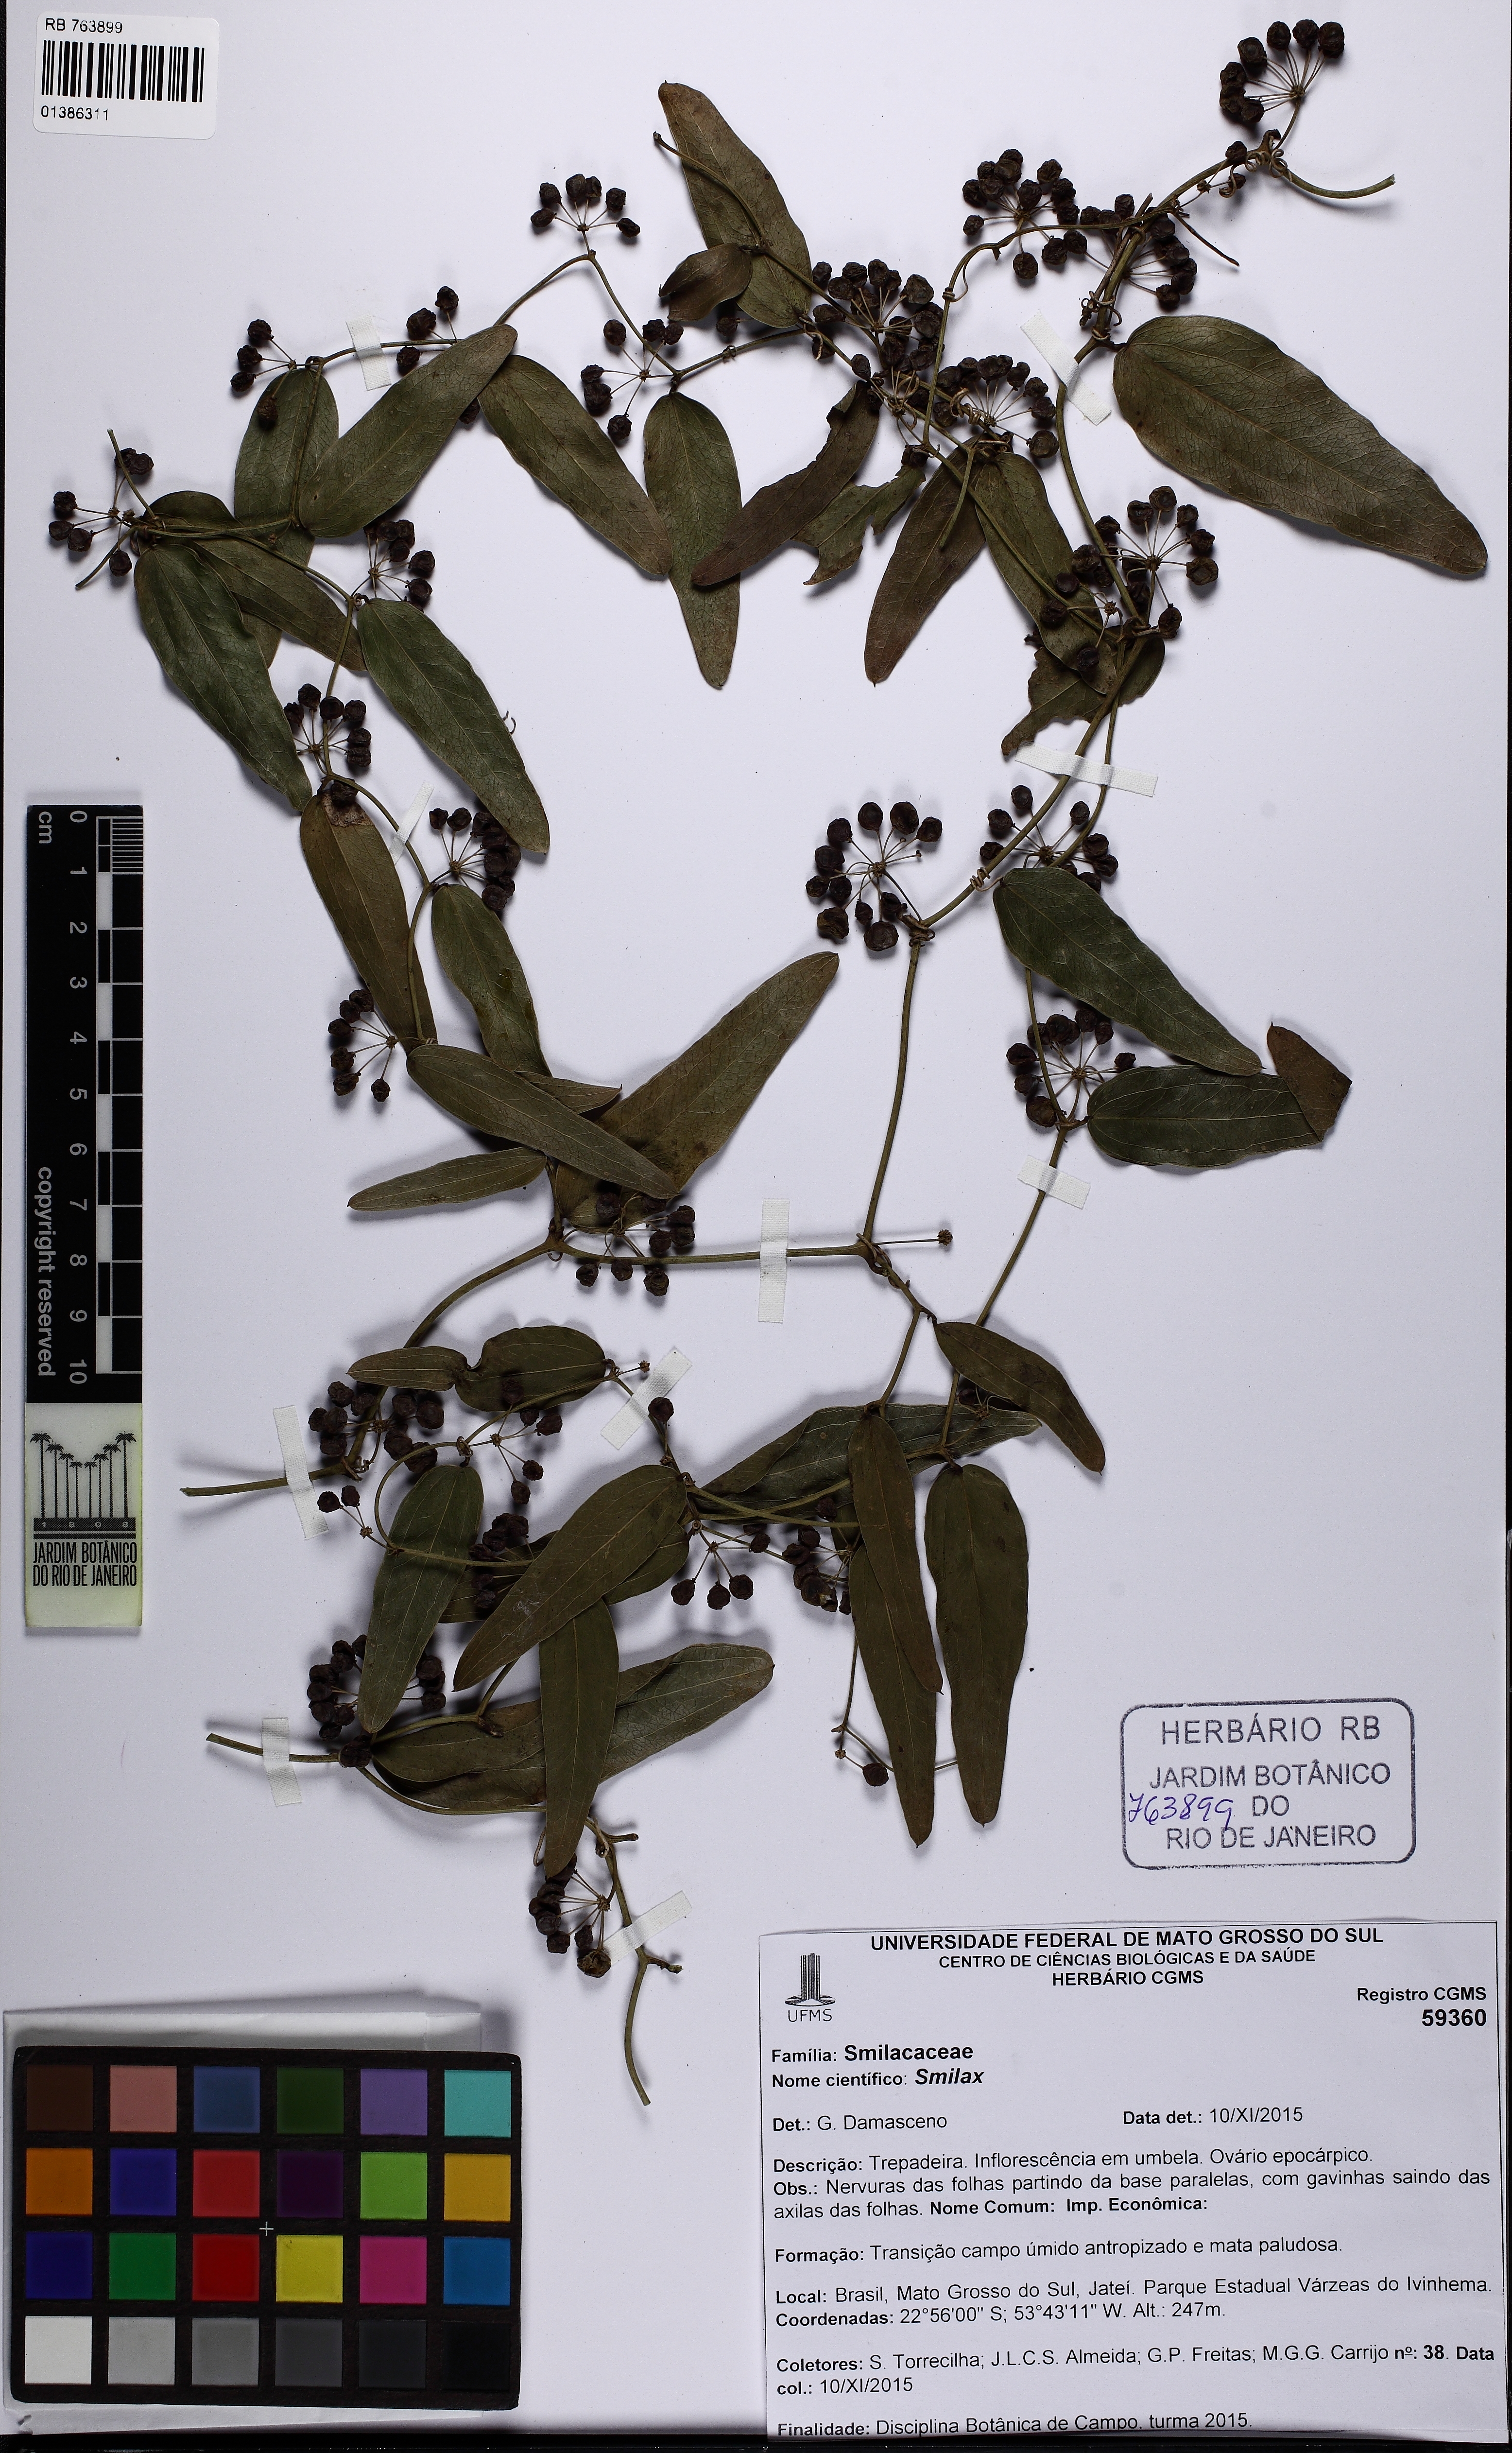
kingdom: Plantae
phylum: Tracheophyta
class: Liliopsida
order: Liliales
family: Smilacaceae
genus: Smilax
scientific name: Smilax
